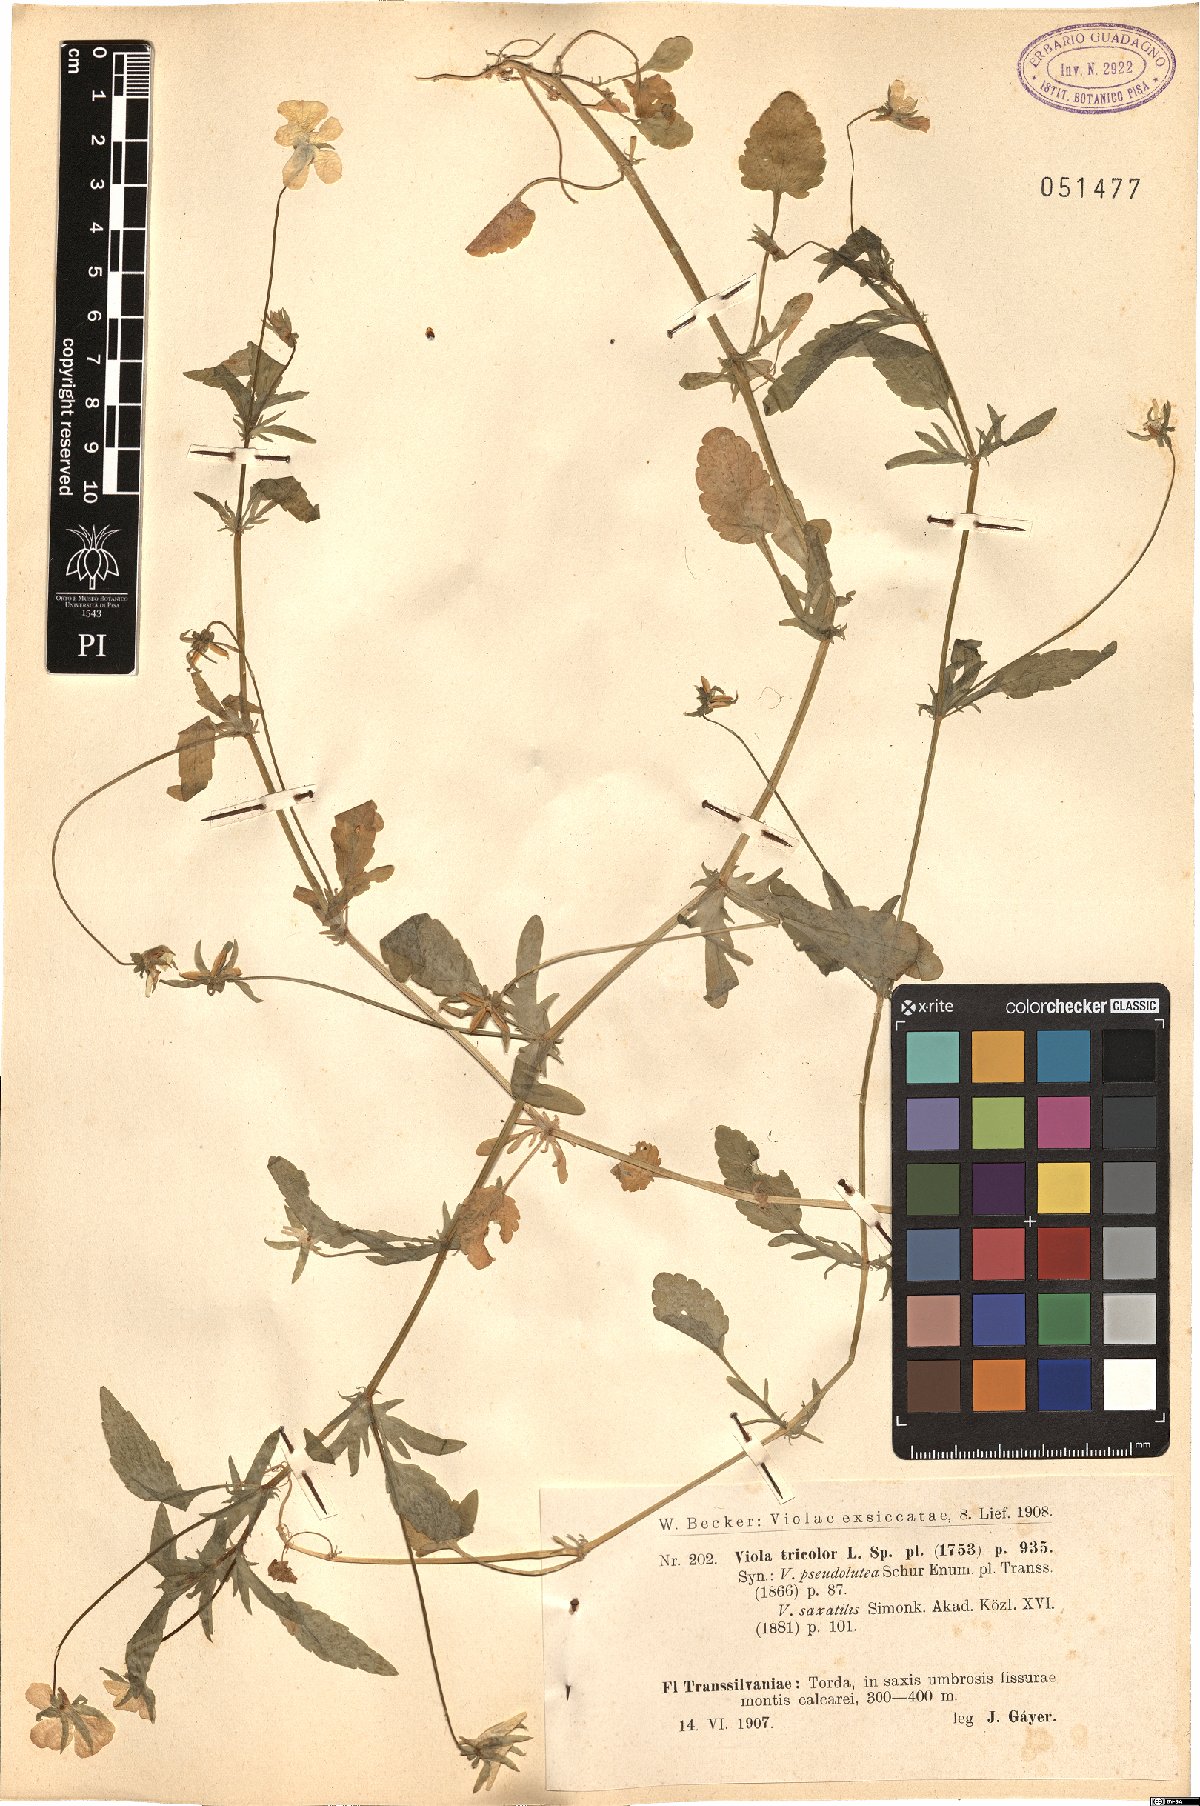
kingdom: Plantae
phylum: Tracheophyta
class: Magnoliopsida
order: Malpighiales
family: Violaceae
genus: Viola
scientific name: Viola tricolor
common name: Pansy
